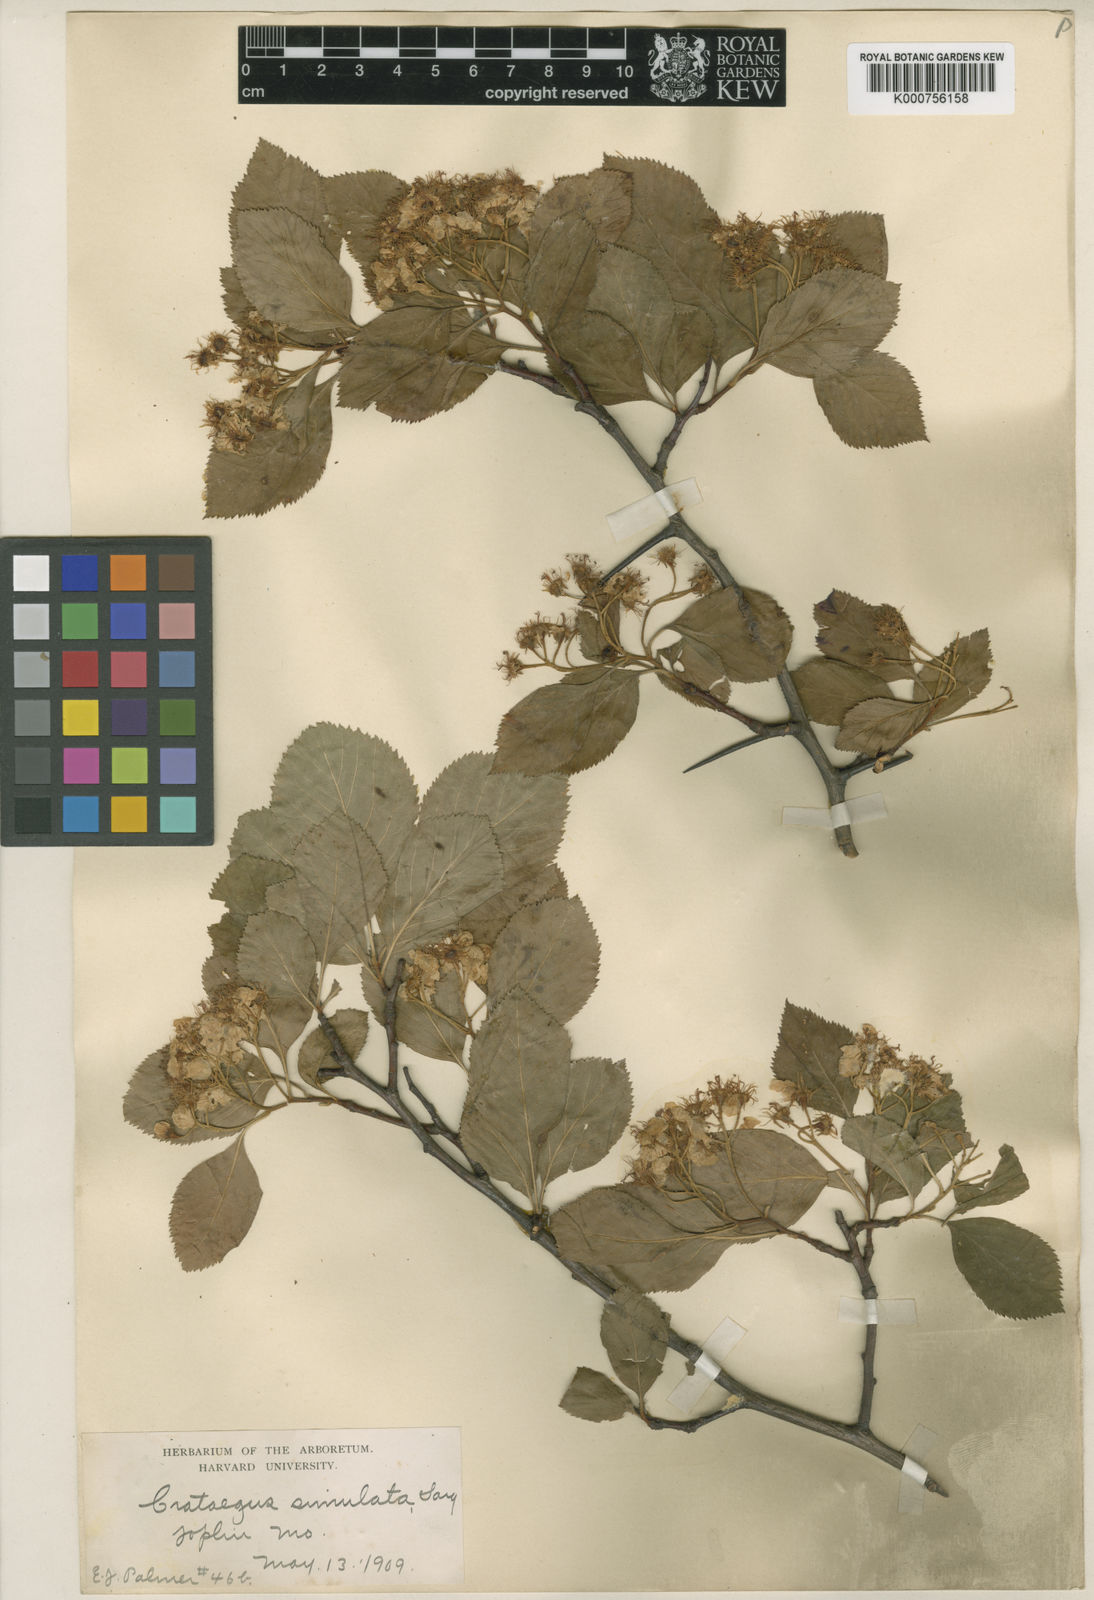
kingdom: Plantae
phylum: Tracheophyta
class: Magnoliopsida
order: Rosales
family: Rosaceae
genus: Crataegus
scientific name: Crataegus simulata
